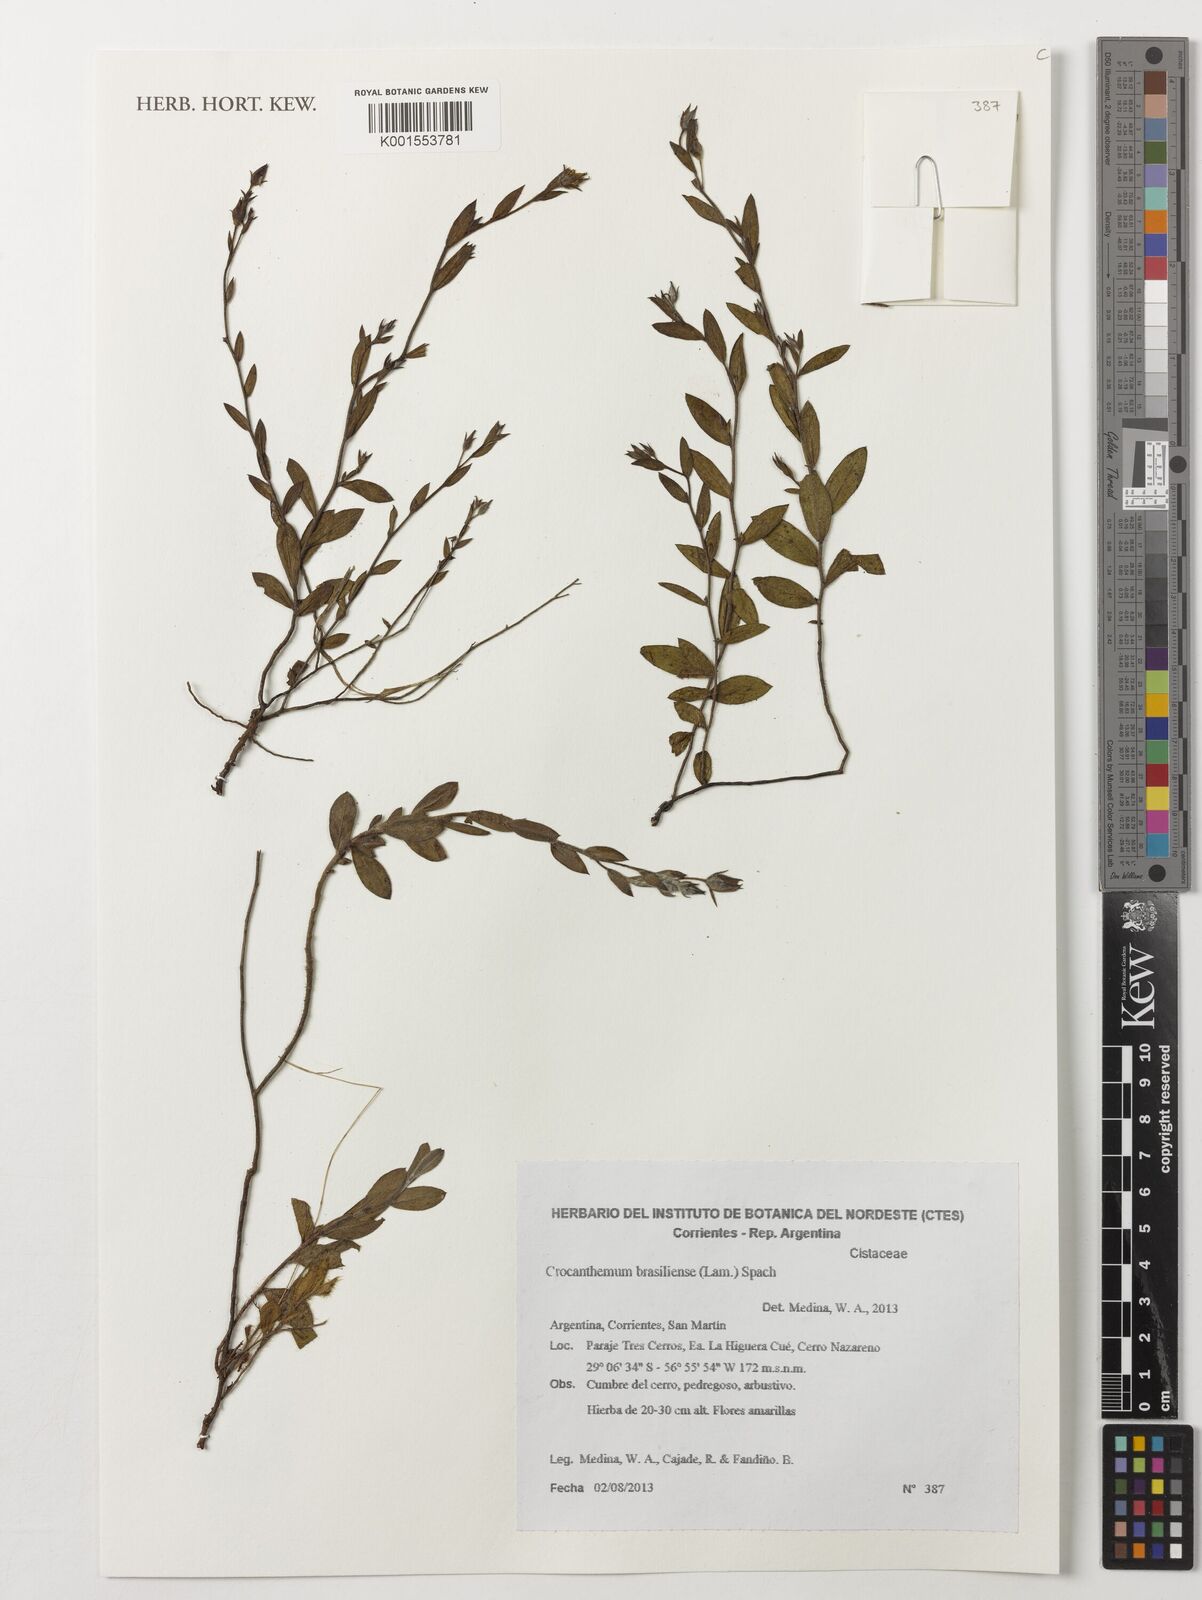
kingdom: Plantae
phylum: Tracheophyta
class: Magnoliopsida
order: Malvales
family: Cistaceae
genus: Crocanthemum
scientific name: Crocanthemum brasiliensis
